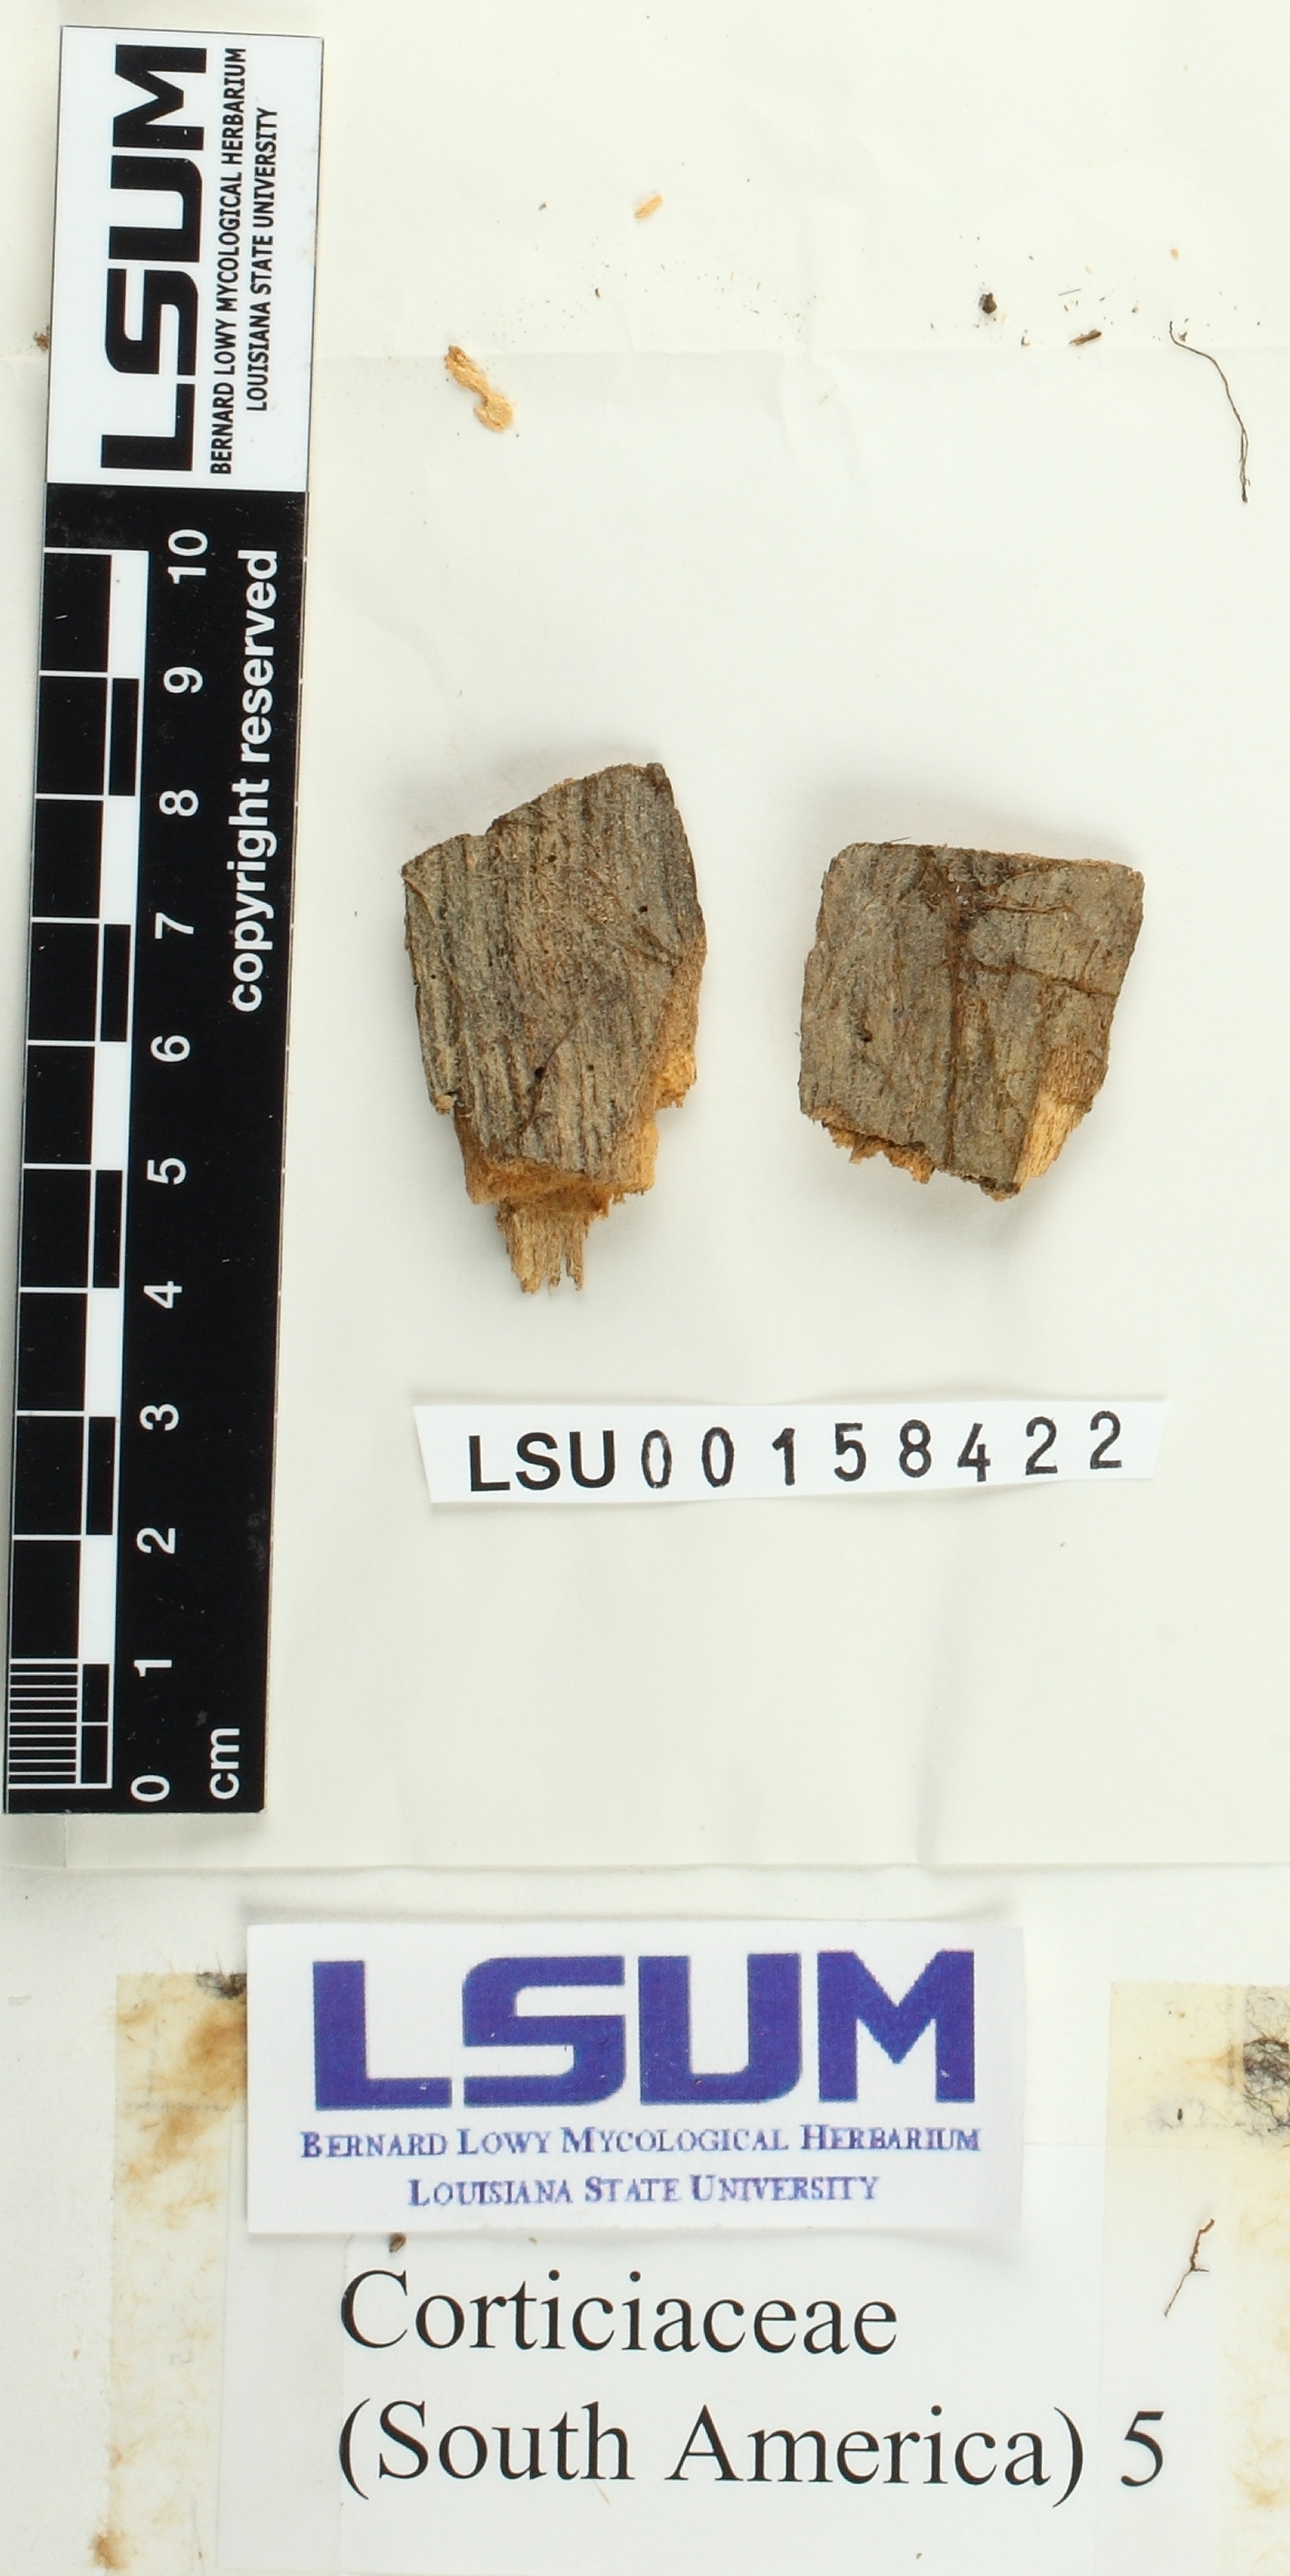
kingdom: Fungi
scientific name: Fungi
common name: Fungi
